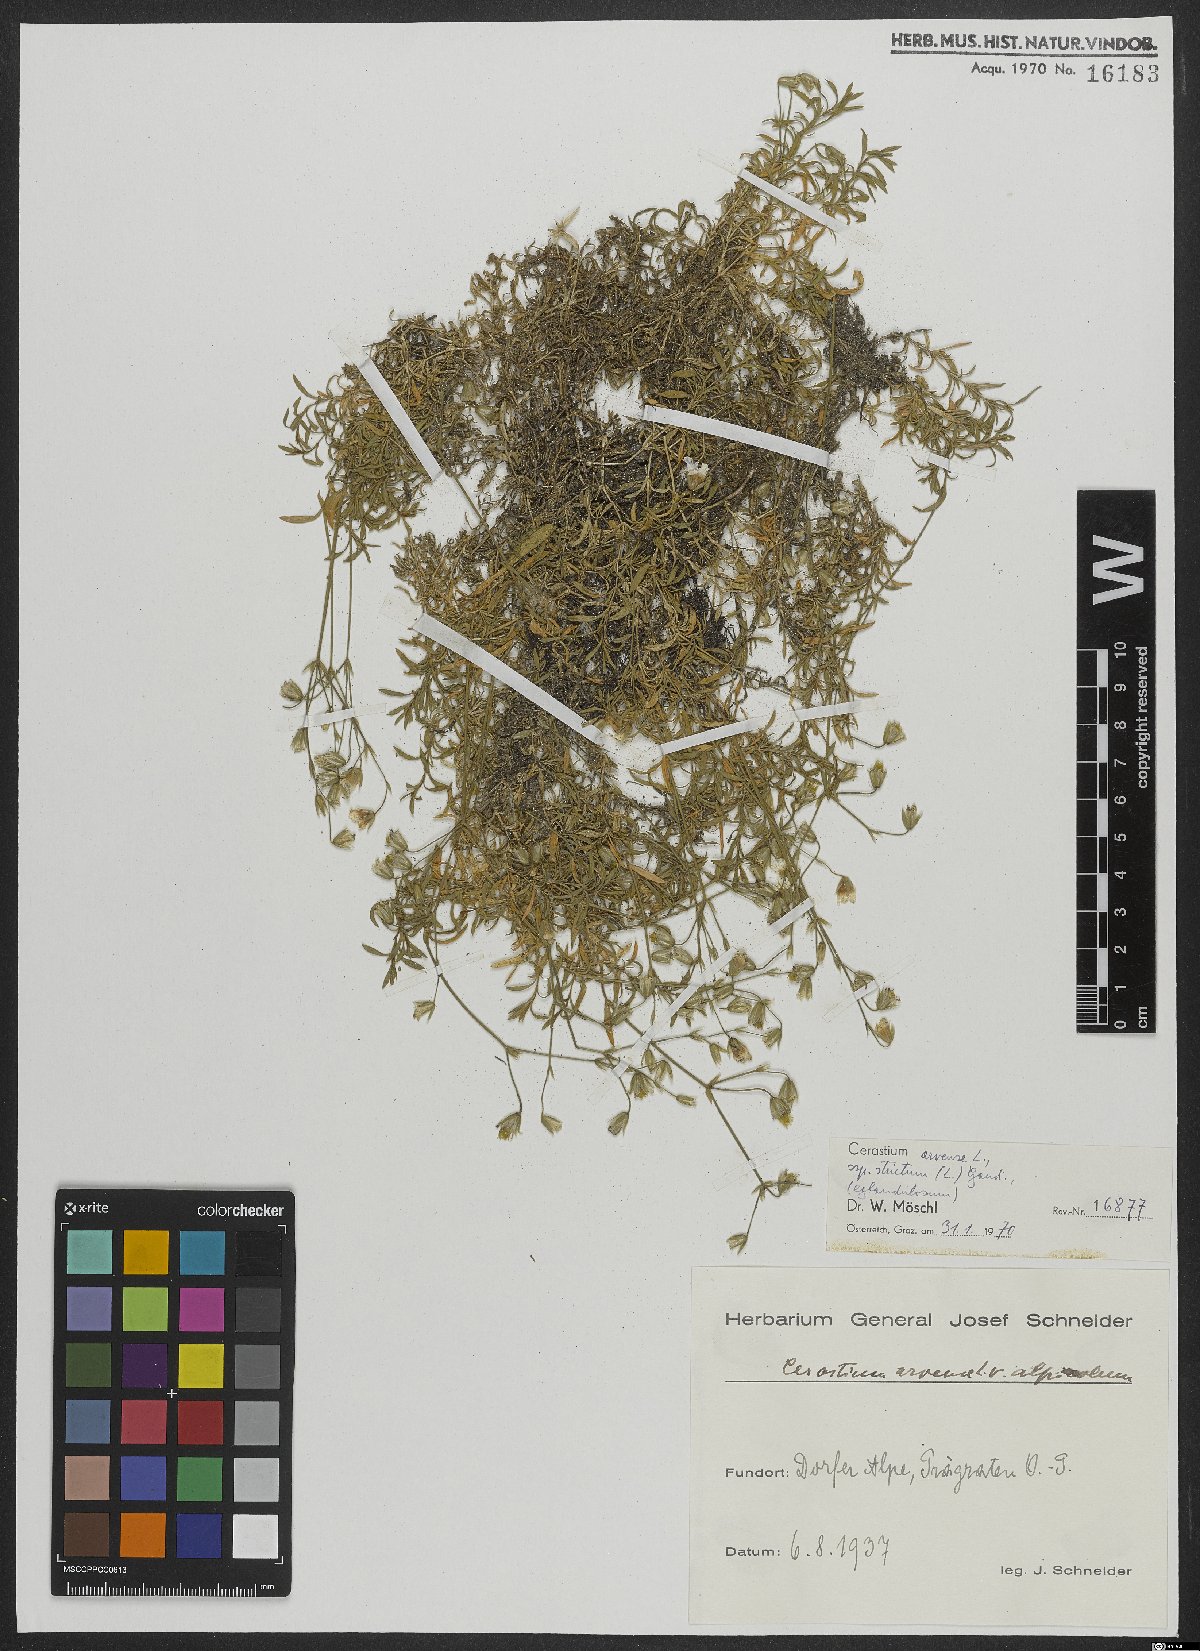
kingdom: Plantae
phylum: Tracheophyta
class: Magnoliopsida
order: Caryophyllales
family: Caryophyllaceae
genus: Cerastium
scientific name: Cerastium elongatum
